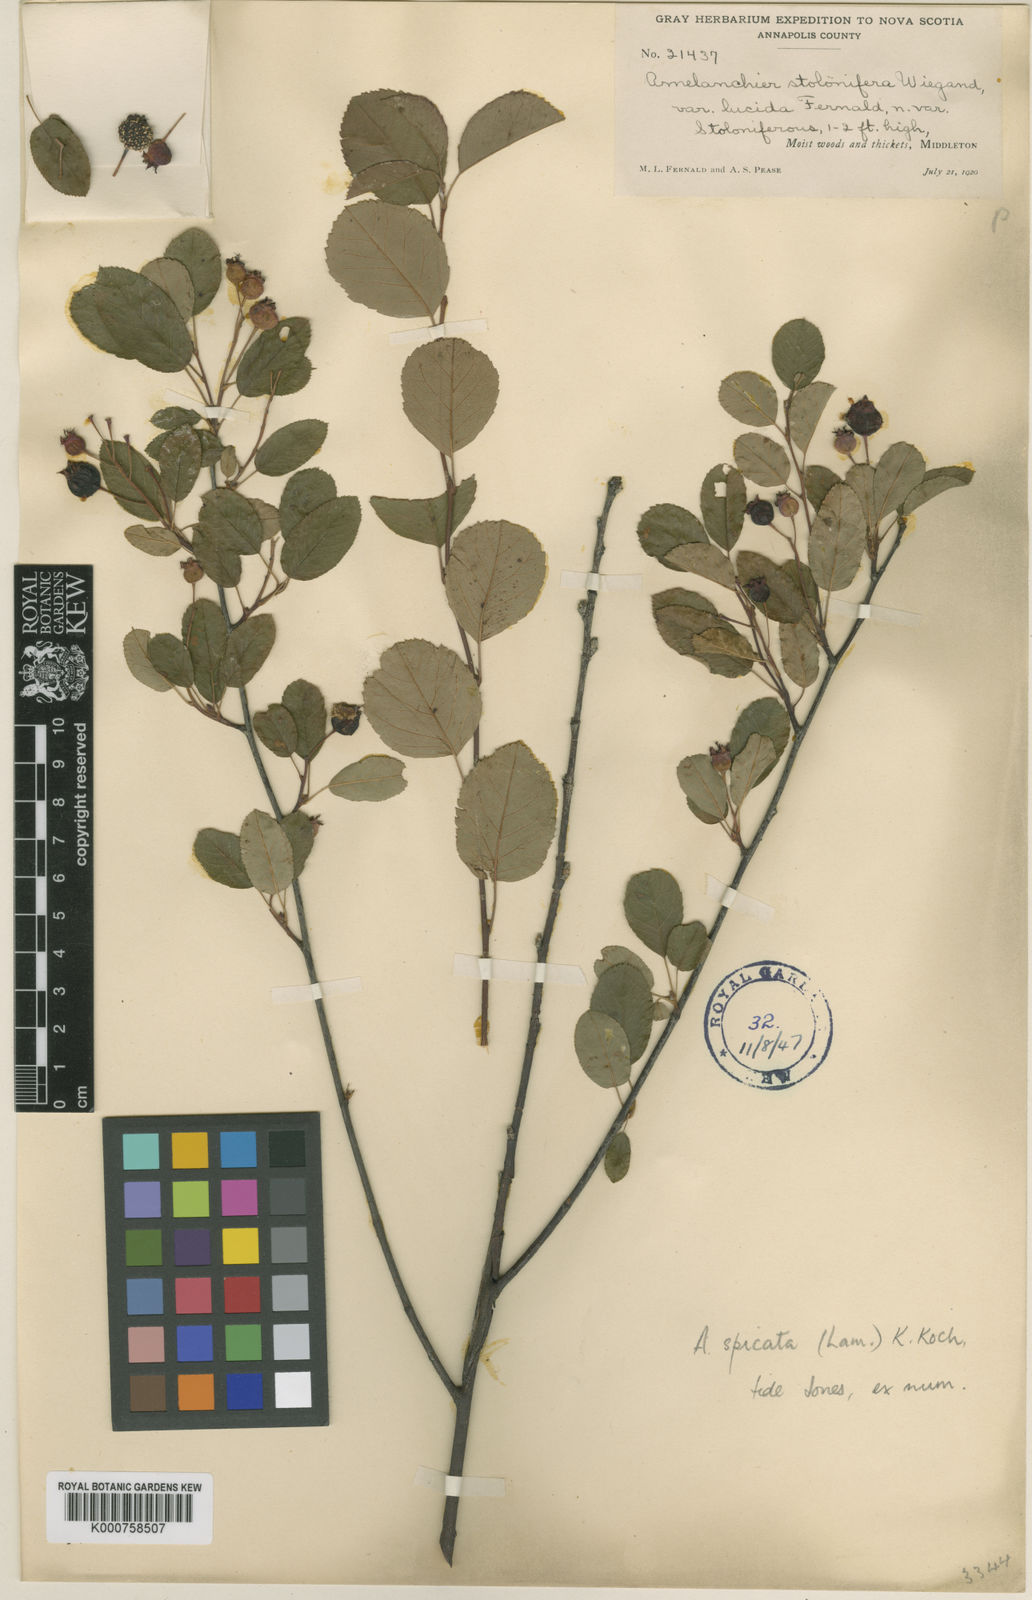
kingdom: Plantae
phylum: Tracheophyta
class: Magnoliopsida
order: Rosales
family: Rosaceae
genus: Amelanchier
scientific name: Amelanchier humilis
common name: Low juneberry
